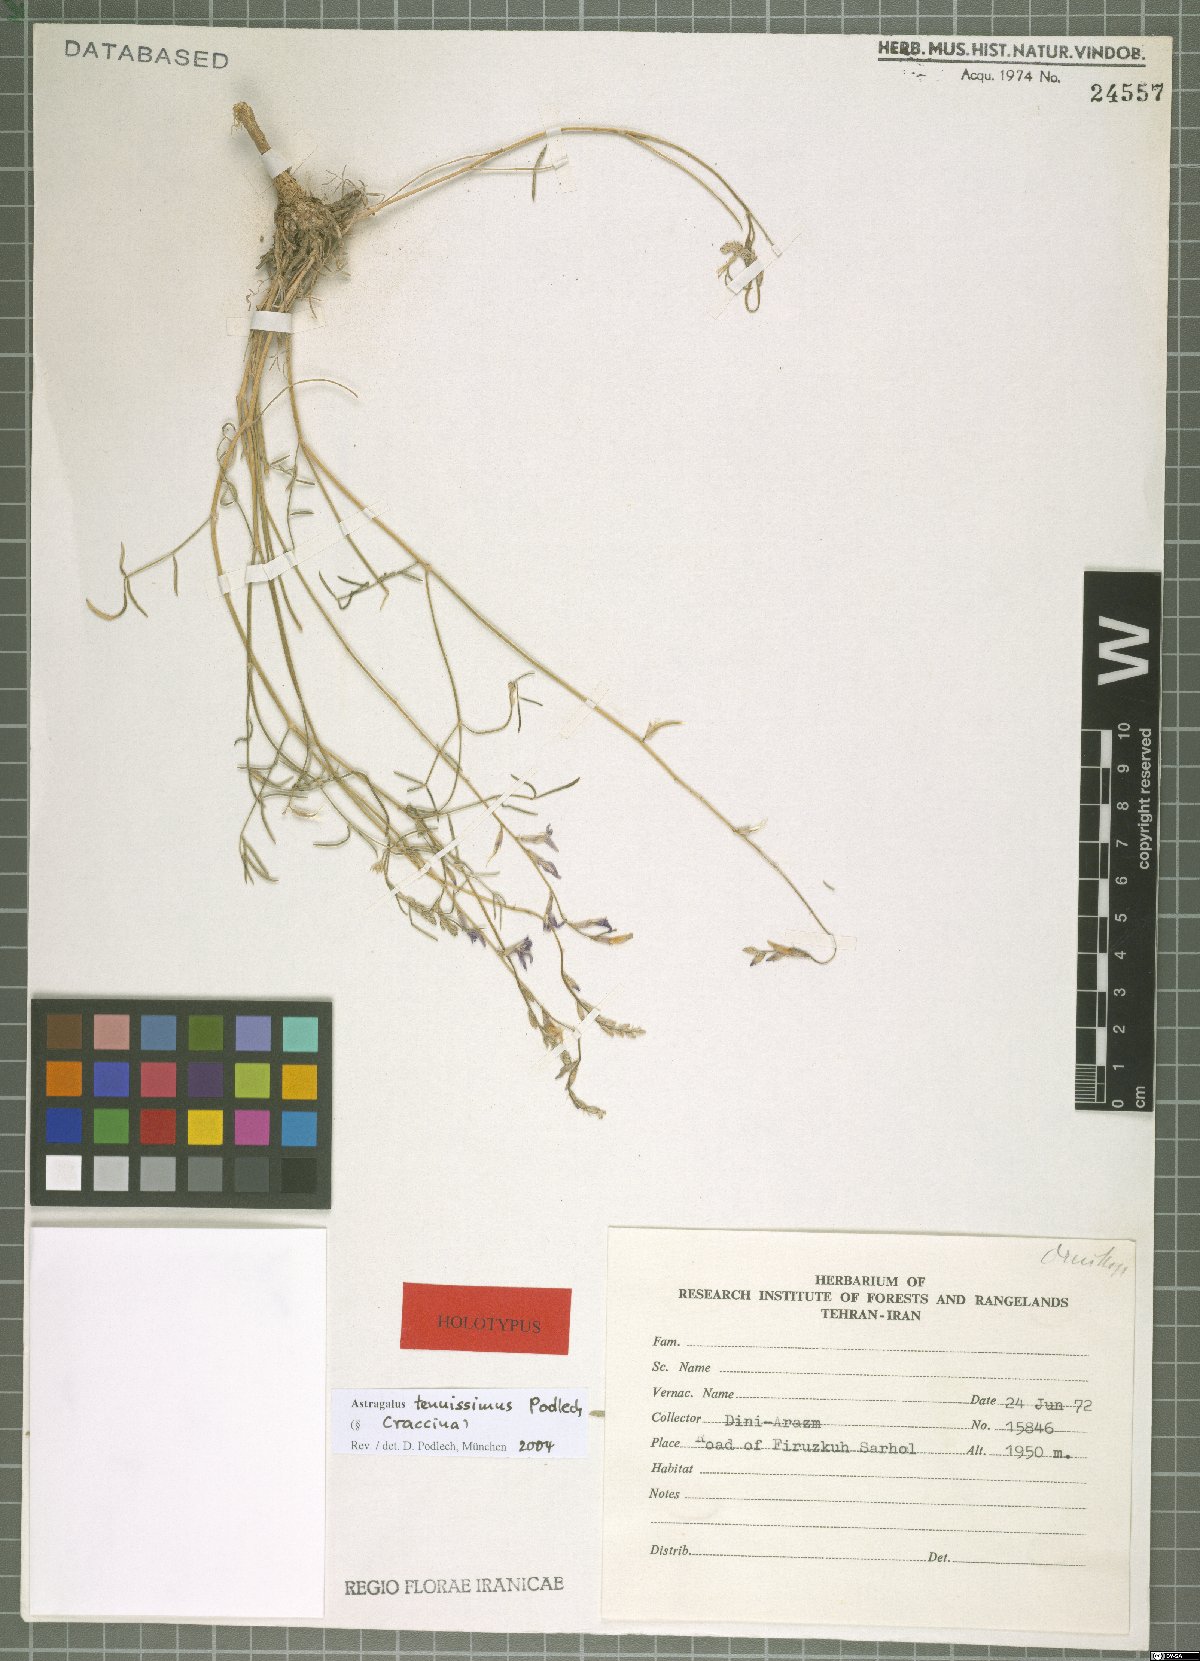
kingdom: Plantae
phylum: Tracheophyta
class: Magnoliopsida
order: Fabales
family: Fabaceae
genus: Astragalus
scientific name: Astragalus tenuissimus
